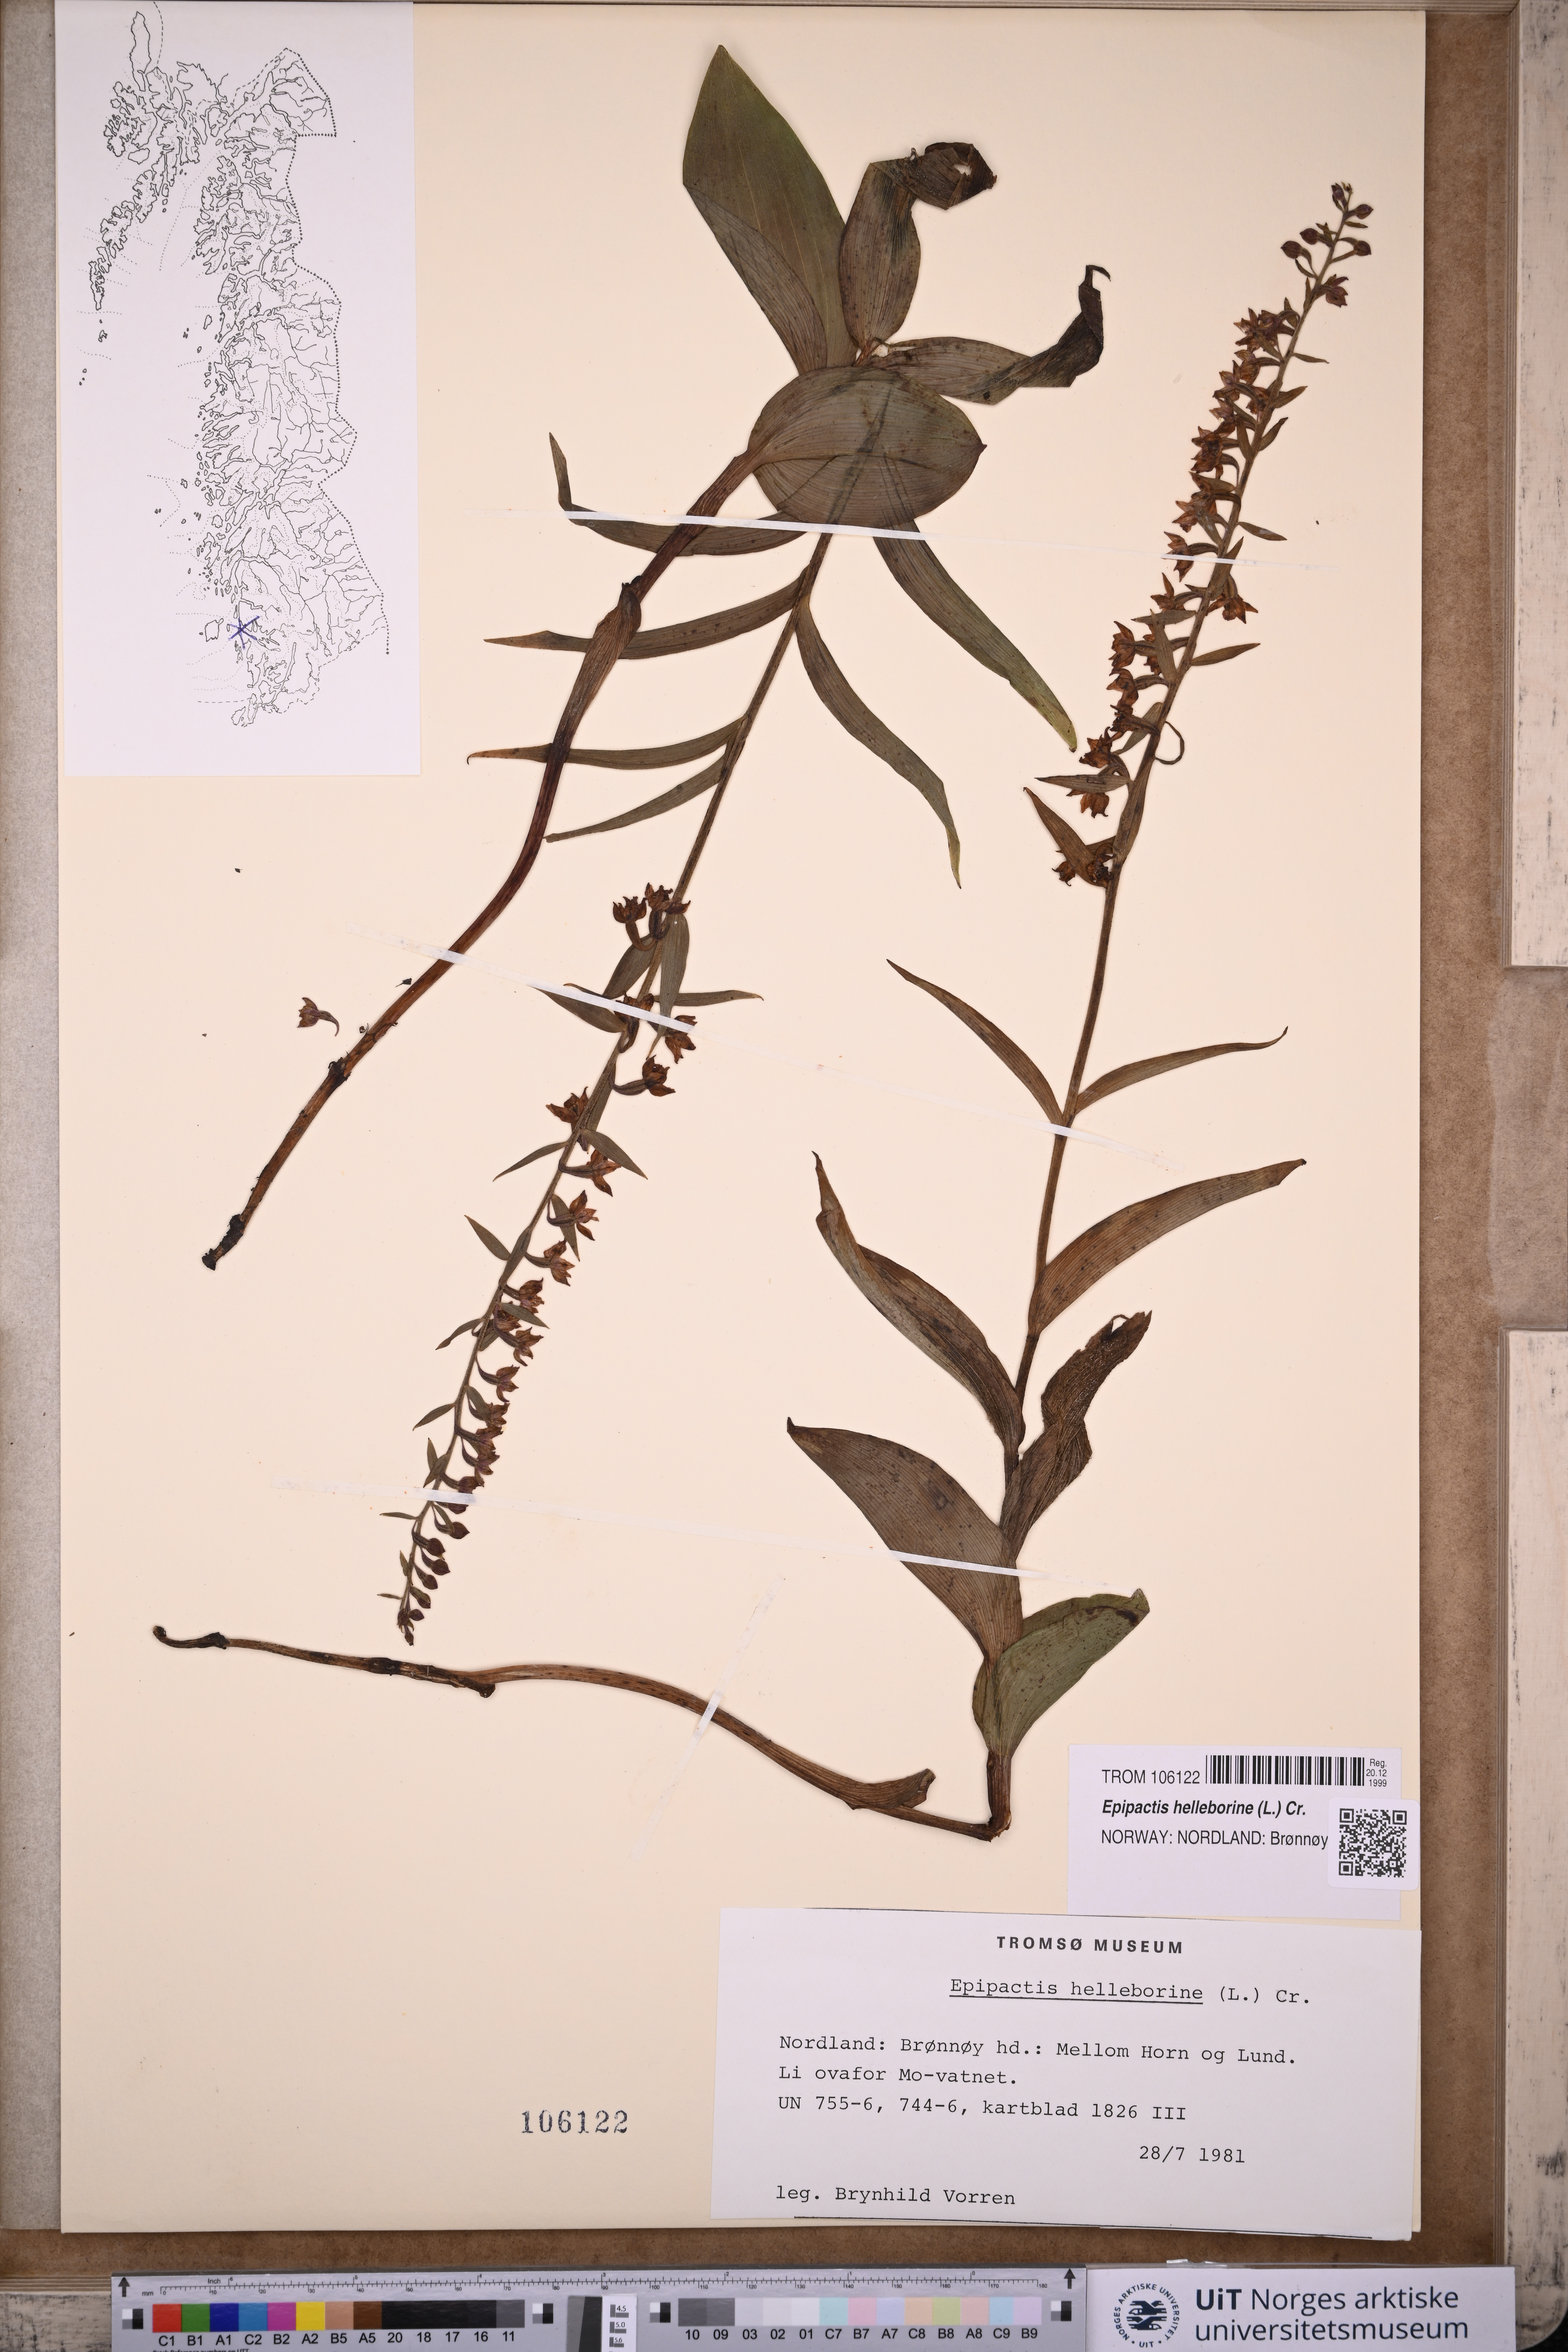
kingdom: Plantae
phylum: Tracheophyta
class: Liliopsida
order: Asparagales
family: Orchidaceae
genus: Epipactis
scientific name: Epipactis helleborine
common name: Broad-leaved helleborine
